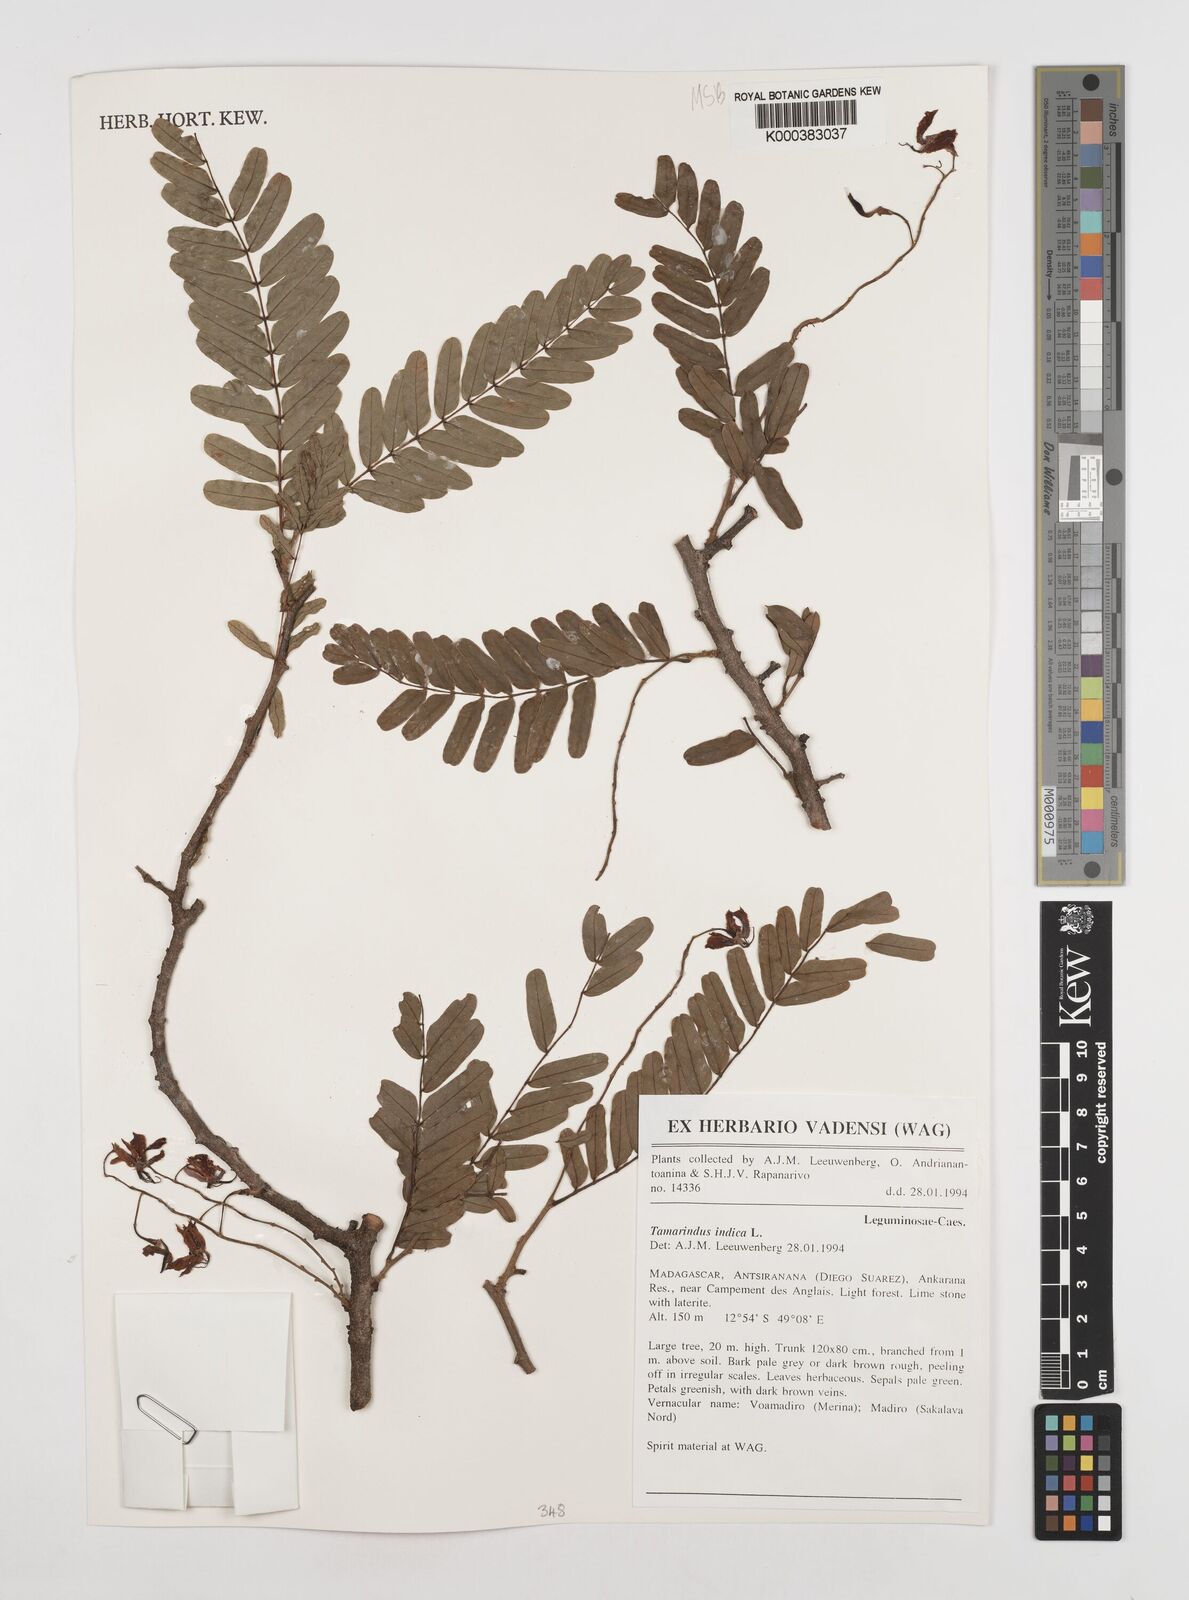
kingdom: Plantae
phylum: Tracheophyta
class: Magnoliopsida
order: Fabales
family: Fabaceae
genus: Tamarindus
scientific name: Tamarindus indica
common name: Tamarind
